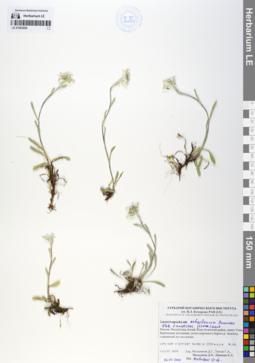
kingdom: Plantae
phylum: Tracheophyta
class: Magnoliopsida
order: Asterales
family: Asteraceae
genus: Leontopodium
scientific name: Leontopodium campestre
